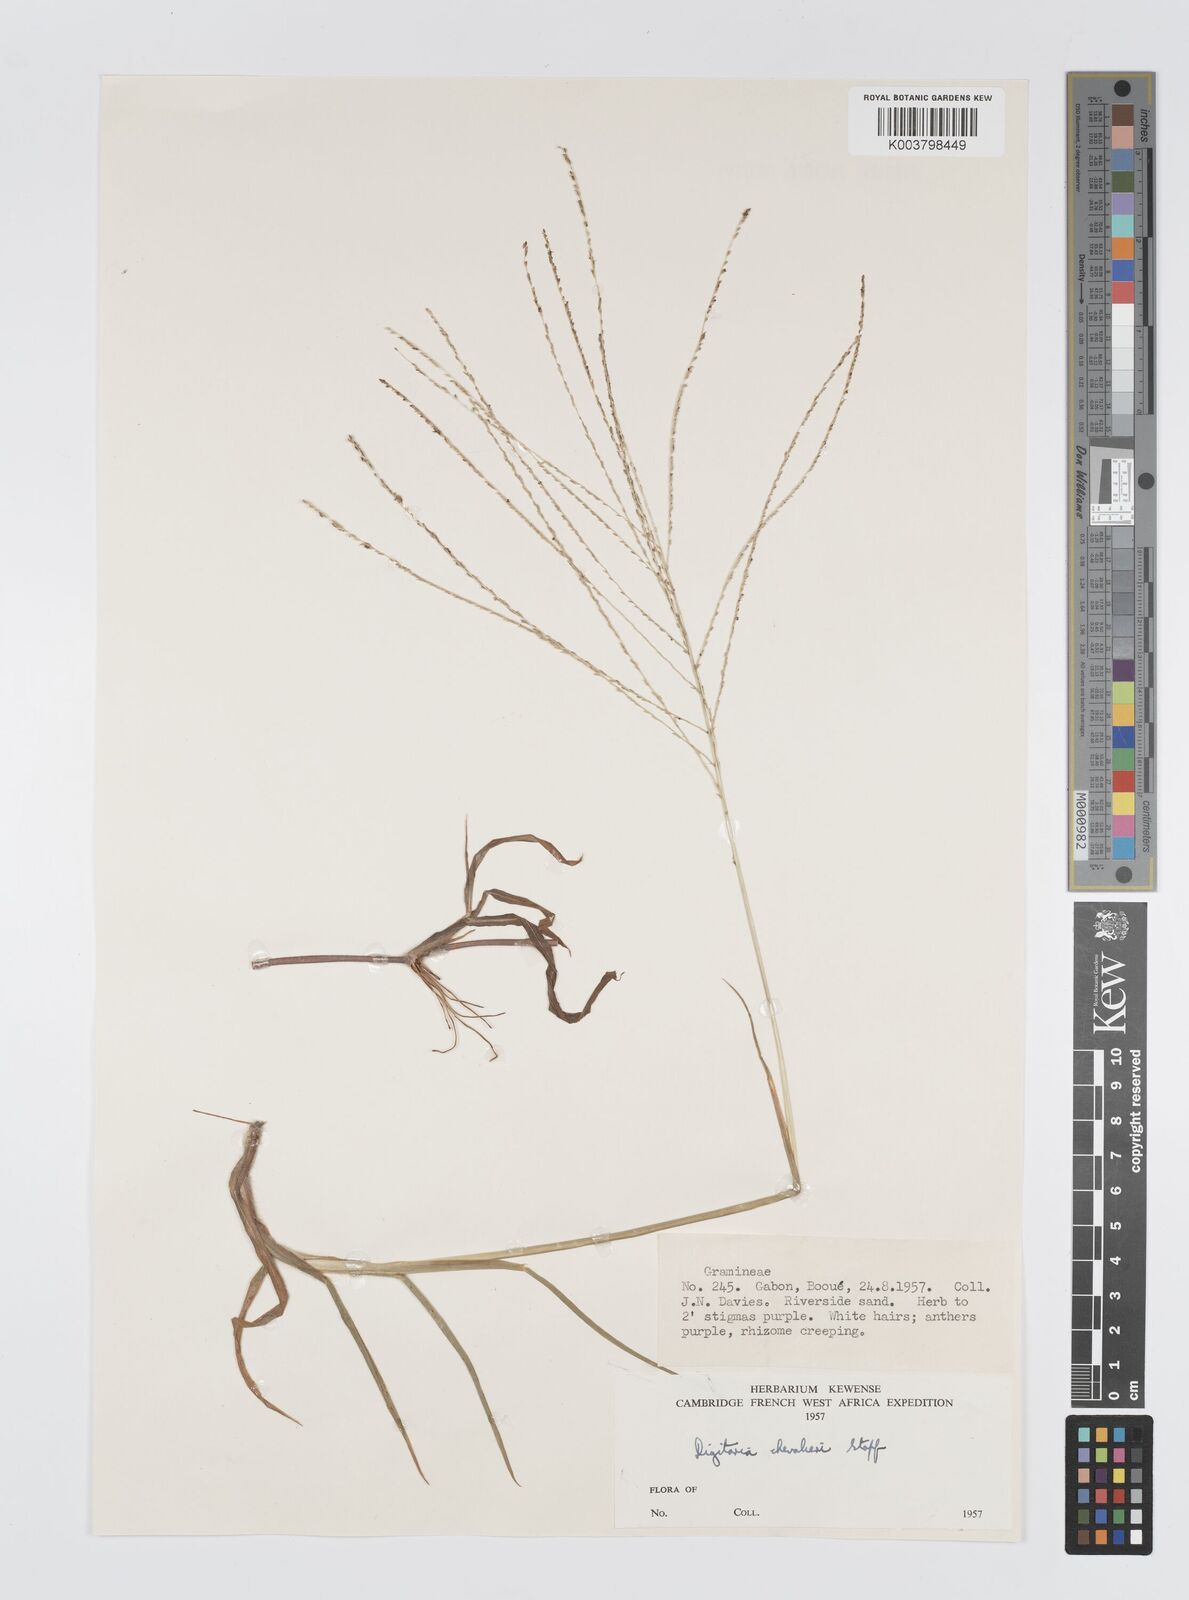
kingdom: Plantae
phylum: Tracheophyta
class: Liliopsida
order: Poales
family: Poaceae
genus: Digitaria
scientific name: Digitaria leptorhachis
